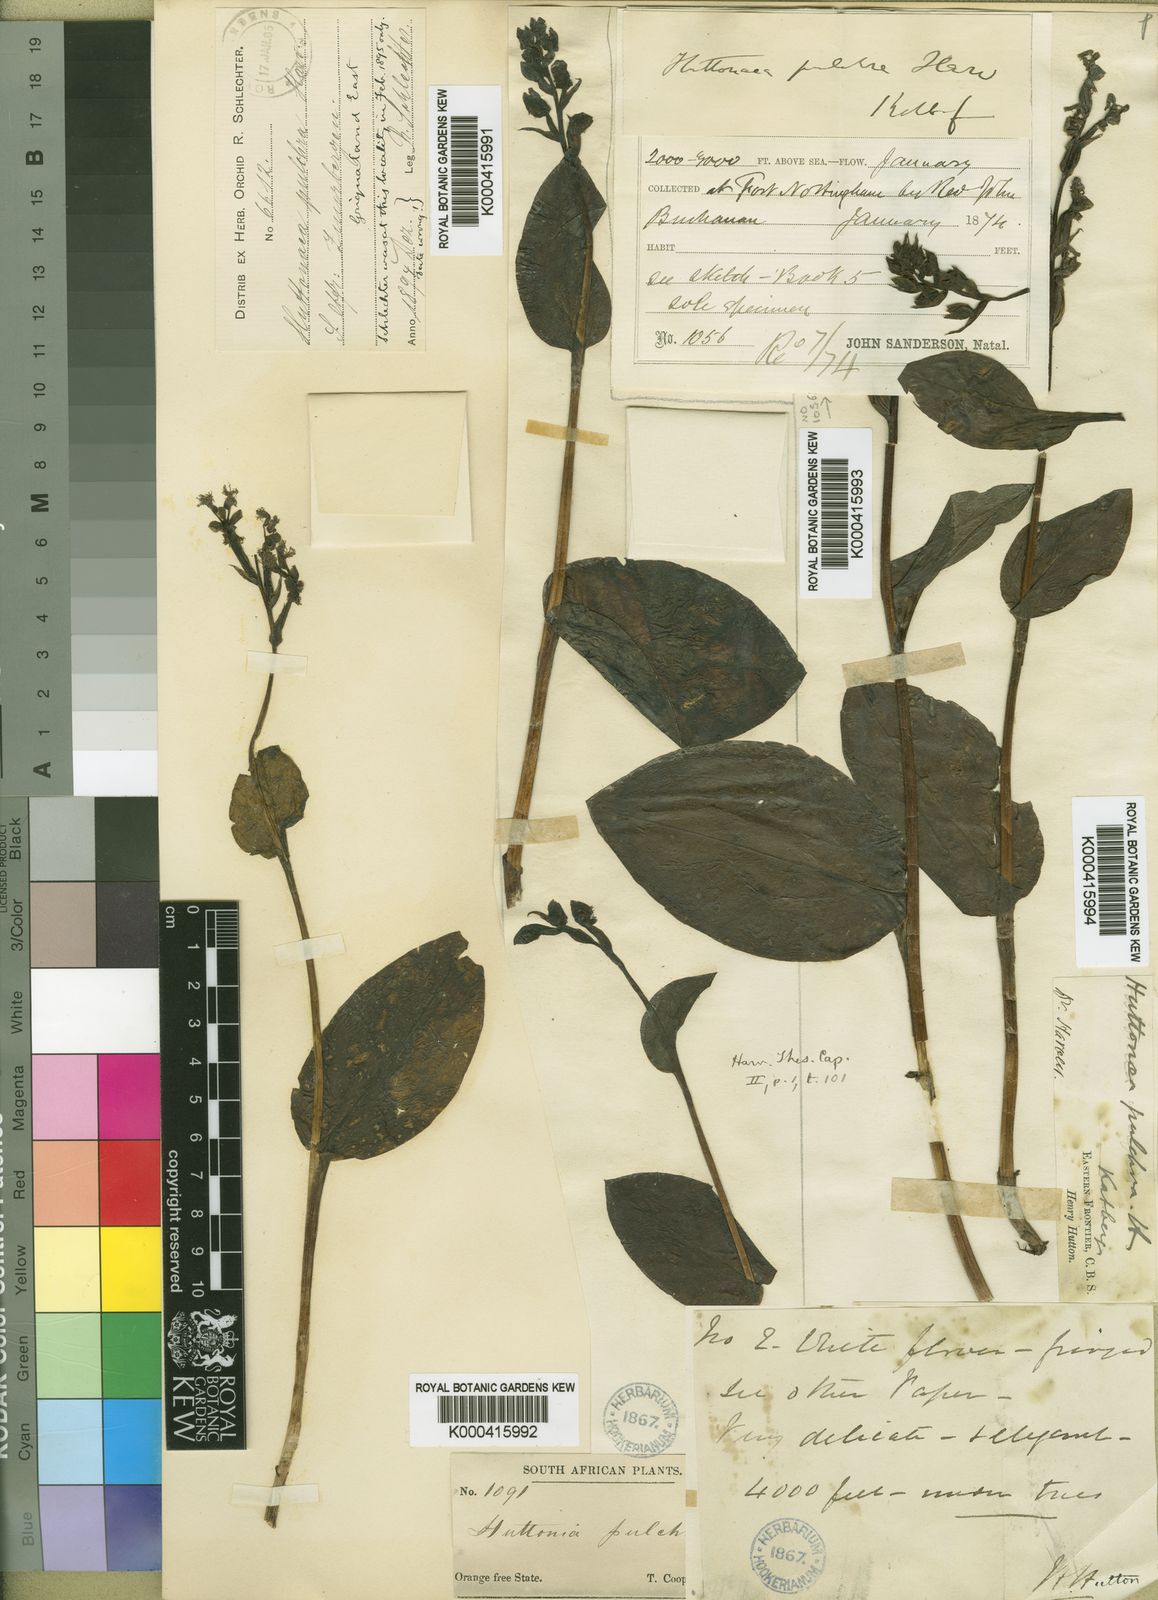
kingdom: Plantae
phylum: Tracheophyta
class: Liliopsida
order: Asparagales
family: Orchidaceae
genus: Huttonaea
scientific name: Huttonaea pulchra
